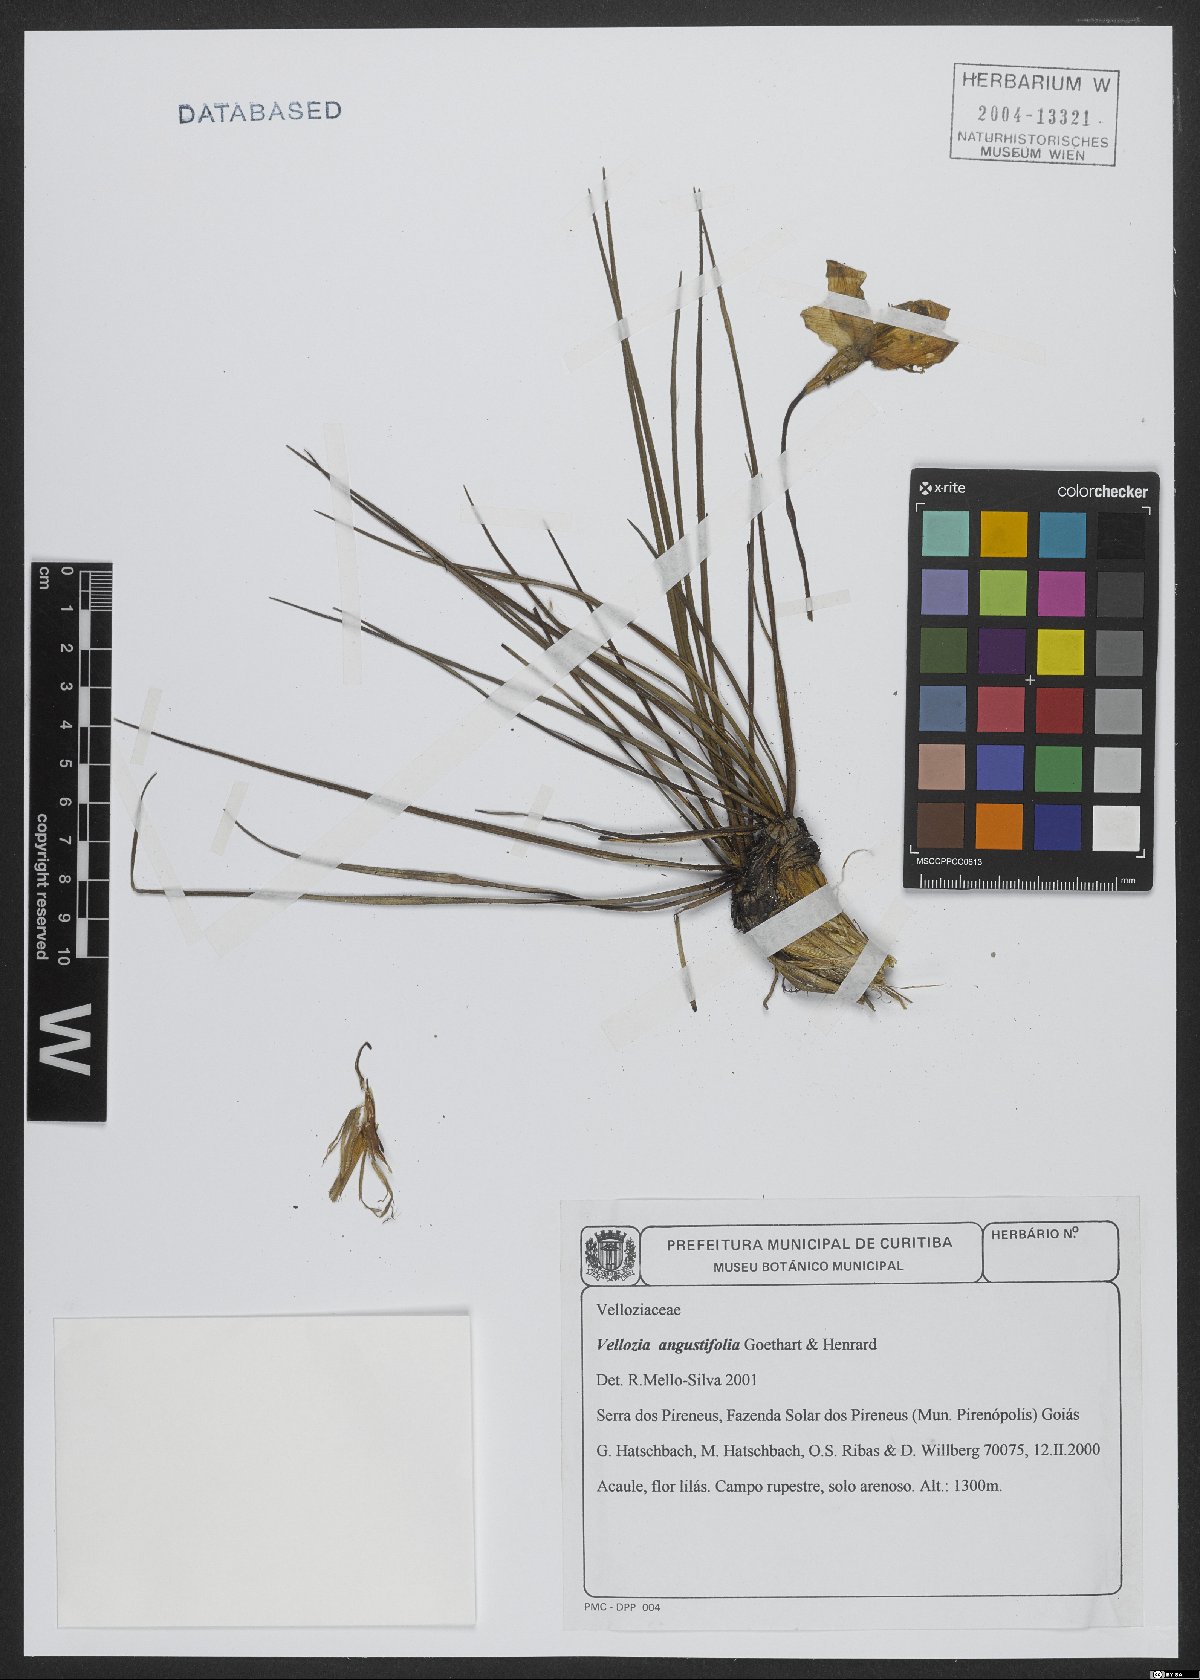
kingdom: Plantae
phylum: Tracheophyta
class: Liliopsida
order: Pandanales
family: Velloziaceae
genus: Vellozia
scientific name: Vellozia angustifolia
